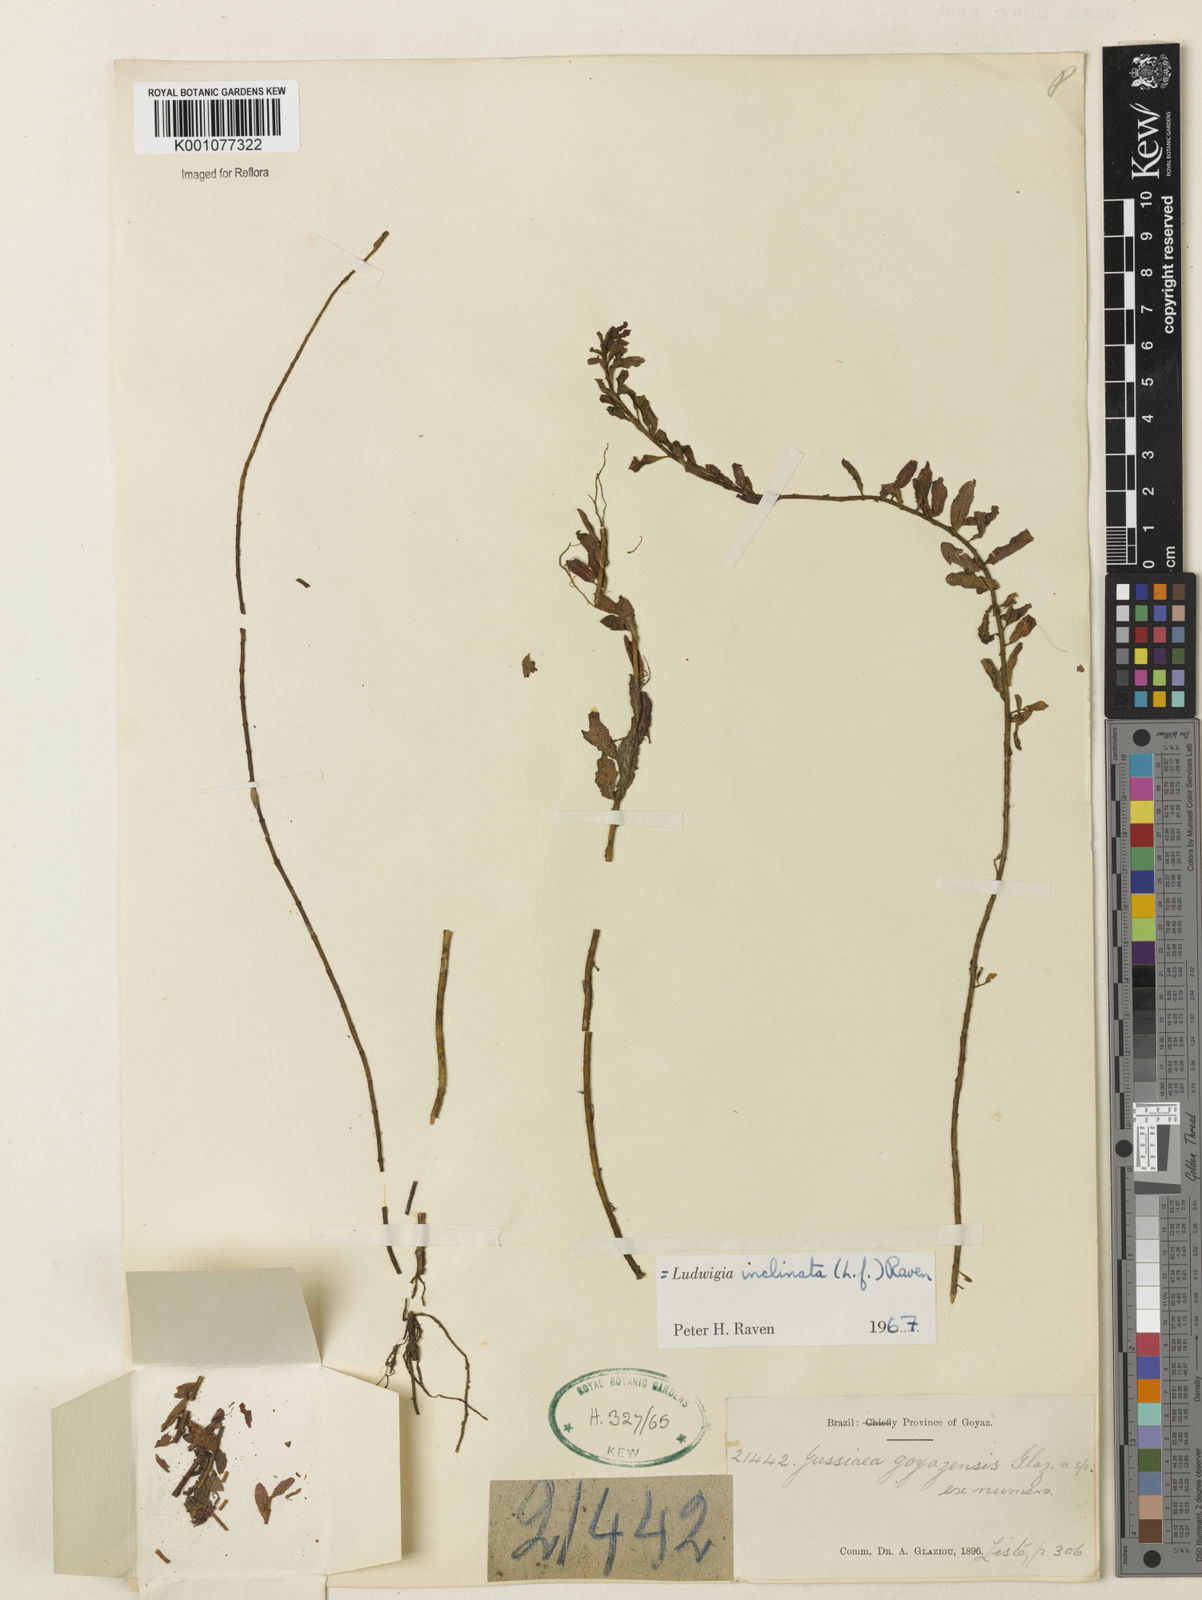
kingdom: Plantae
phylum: Tracheophyta
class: Magnoliopsida
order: Myrtales
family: Onagraceae
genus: Ludwigia
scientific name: Ludwigia
